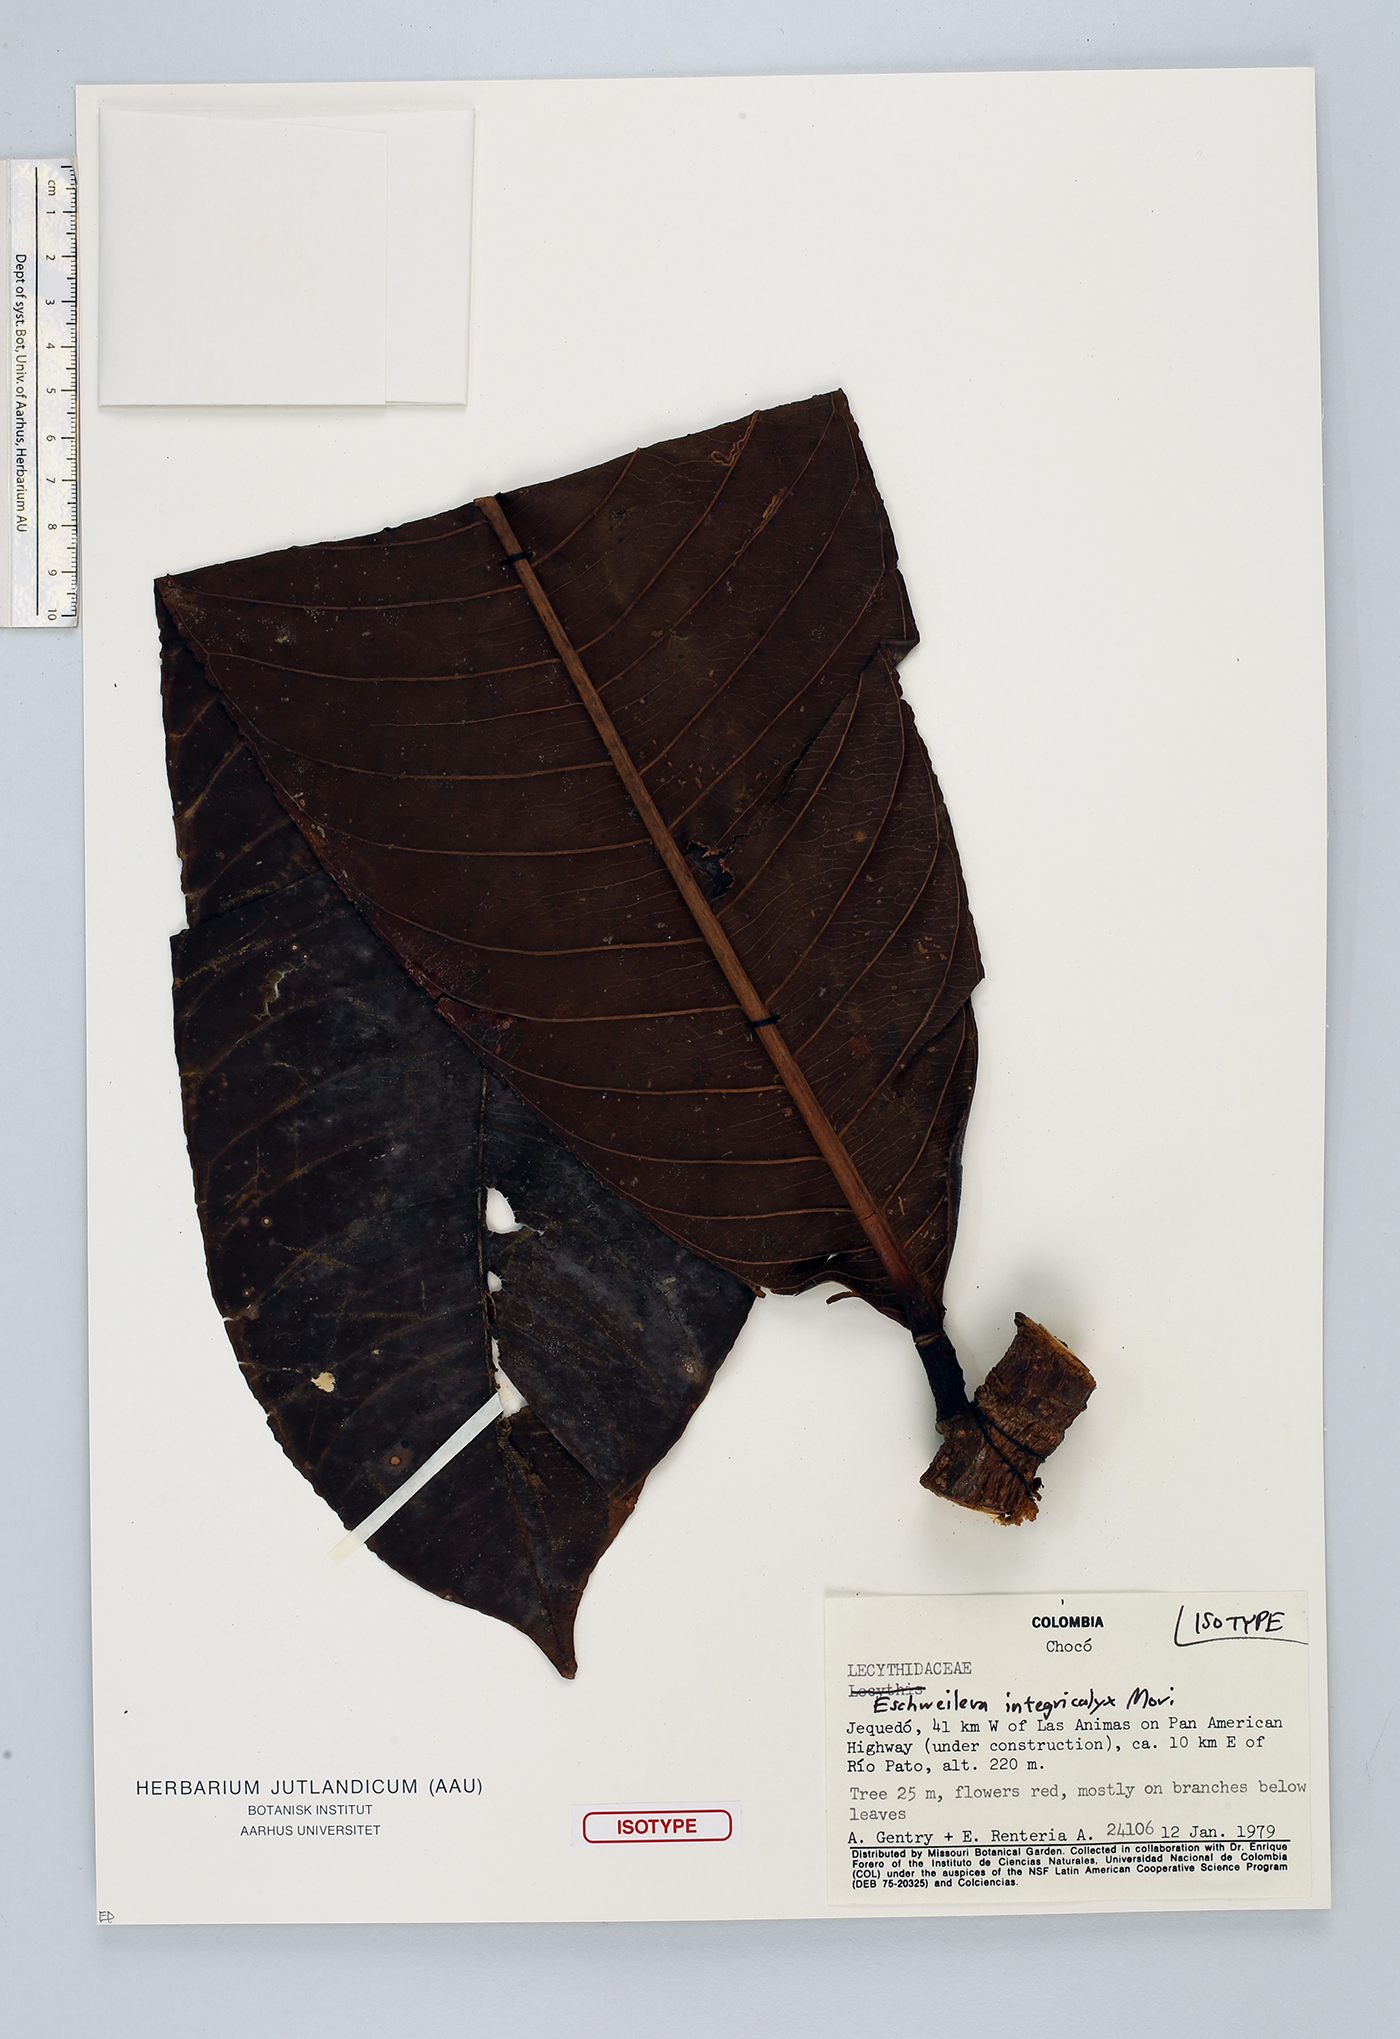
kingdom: Plantae
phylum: Tracheophyta
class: Magnoliopsida
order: Ericales
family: Lecythidaceae
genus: Eschweilera
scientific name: Eschweilera integricalyx
